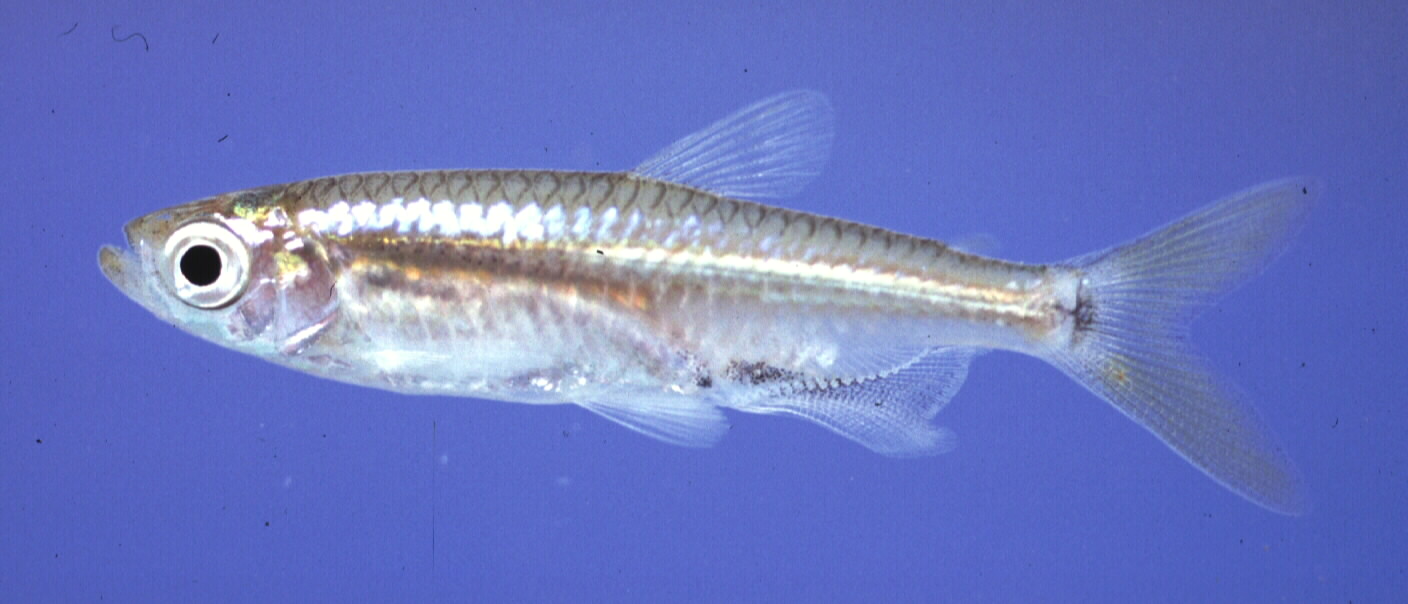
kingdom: Animalia
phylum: Chordata
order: Characiformes
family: Alestidae
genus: Hemigrammopetersius
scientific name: Hemigrammopetersius barnardi
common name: Barnard's robber
